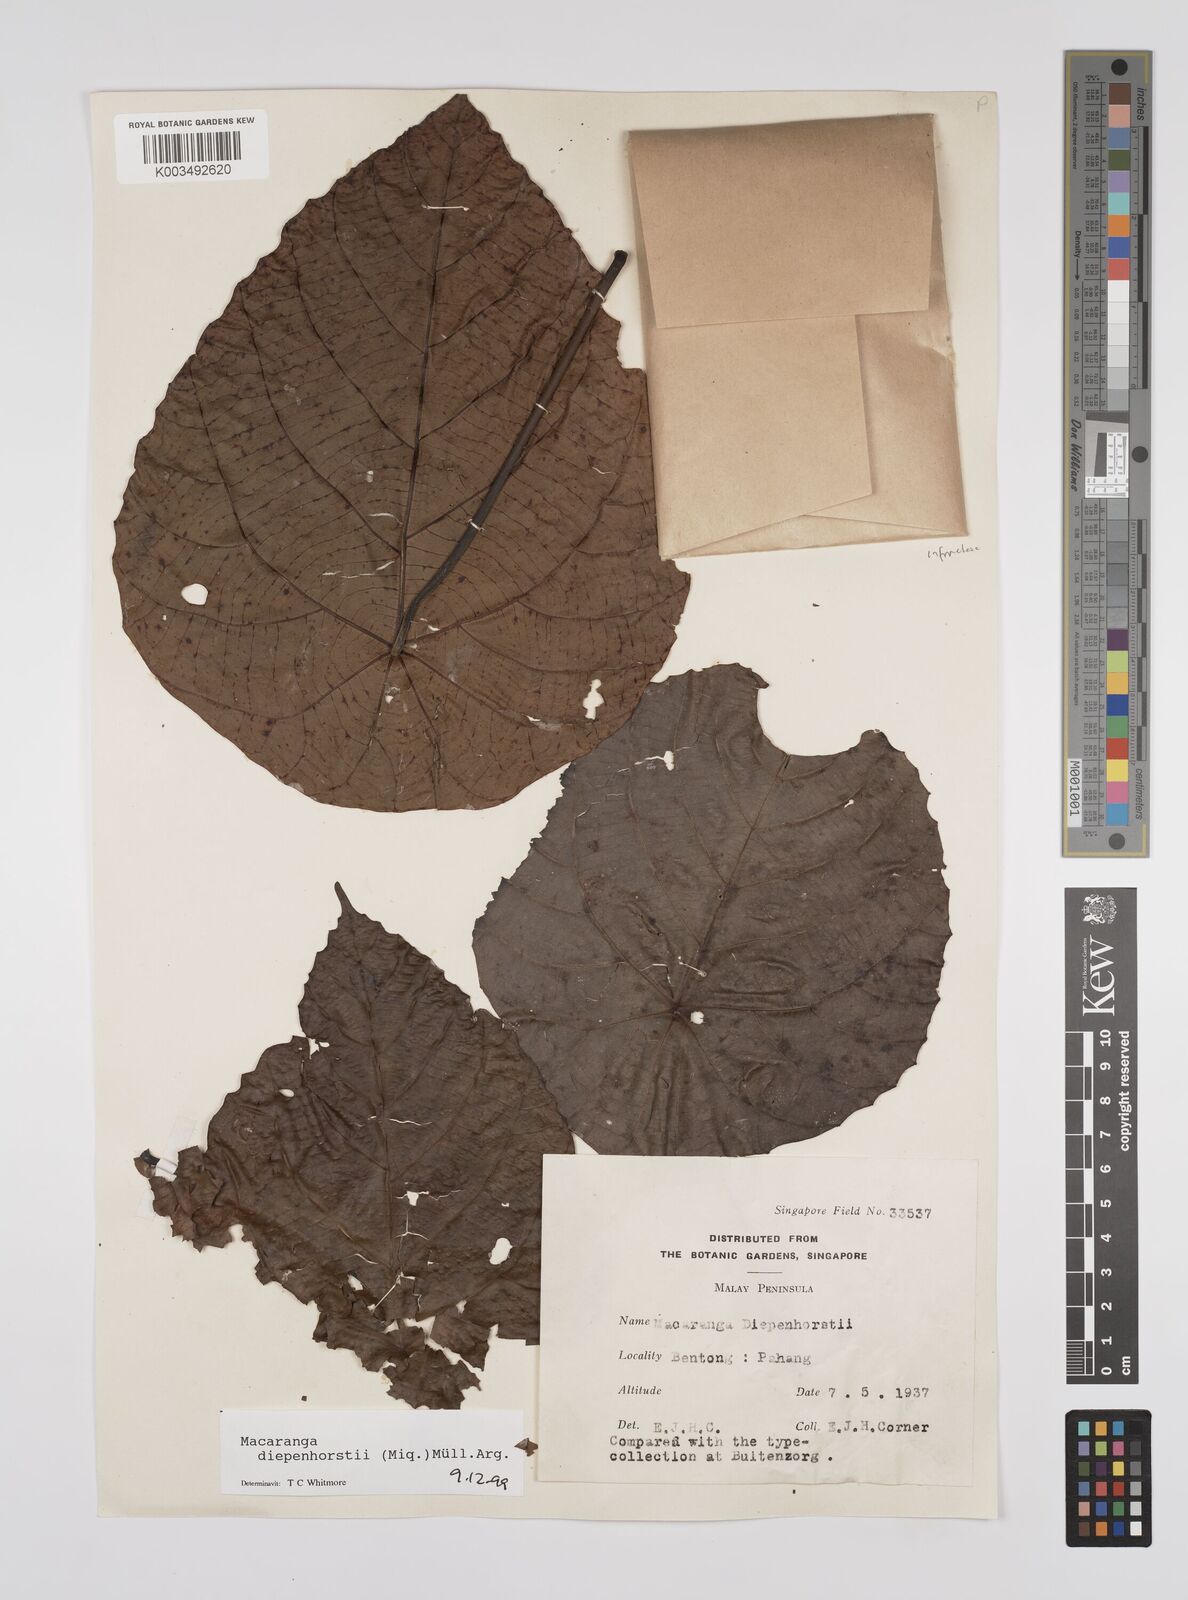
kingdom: Plantae
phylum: Tracheophyta
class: Magnoliopsida
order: Malpighiales
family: Euphorbiaceae
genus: Macaranga
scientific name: Macaranga diepenhorstii
